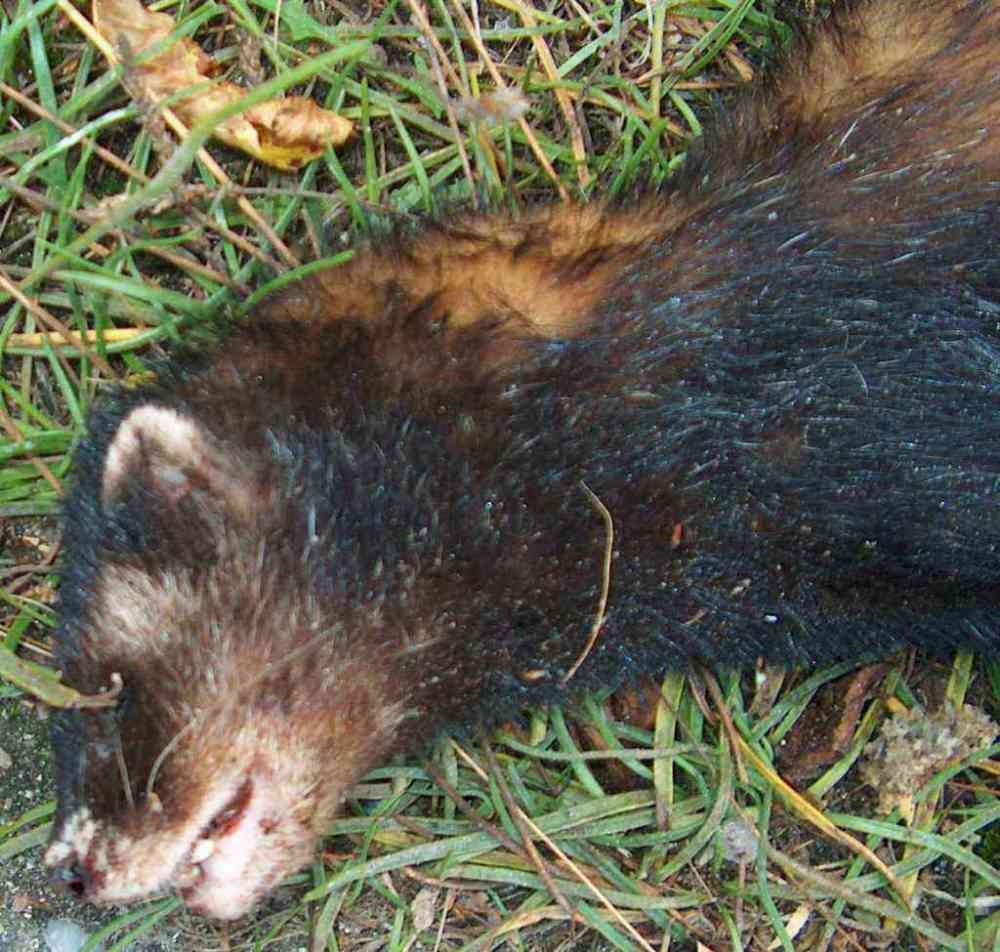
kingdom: Animalia
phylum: Chordata
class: Mammalia
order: Carnivora
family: Mustelidae
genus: Mustela
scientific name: Mustela putorius
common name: Ilder
